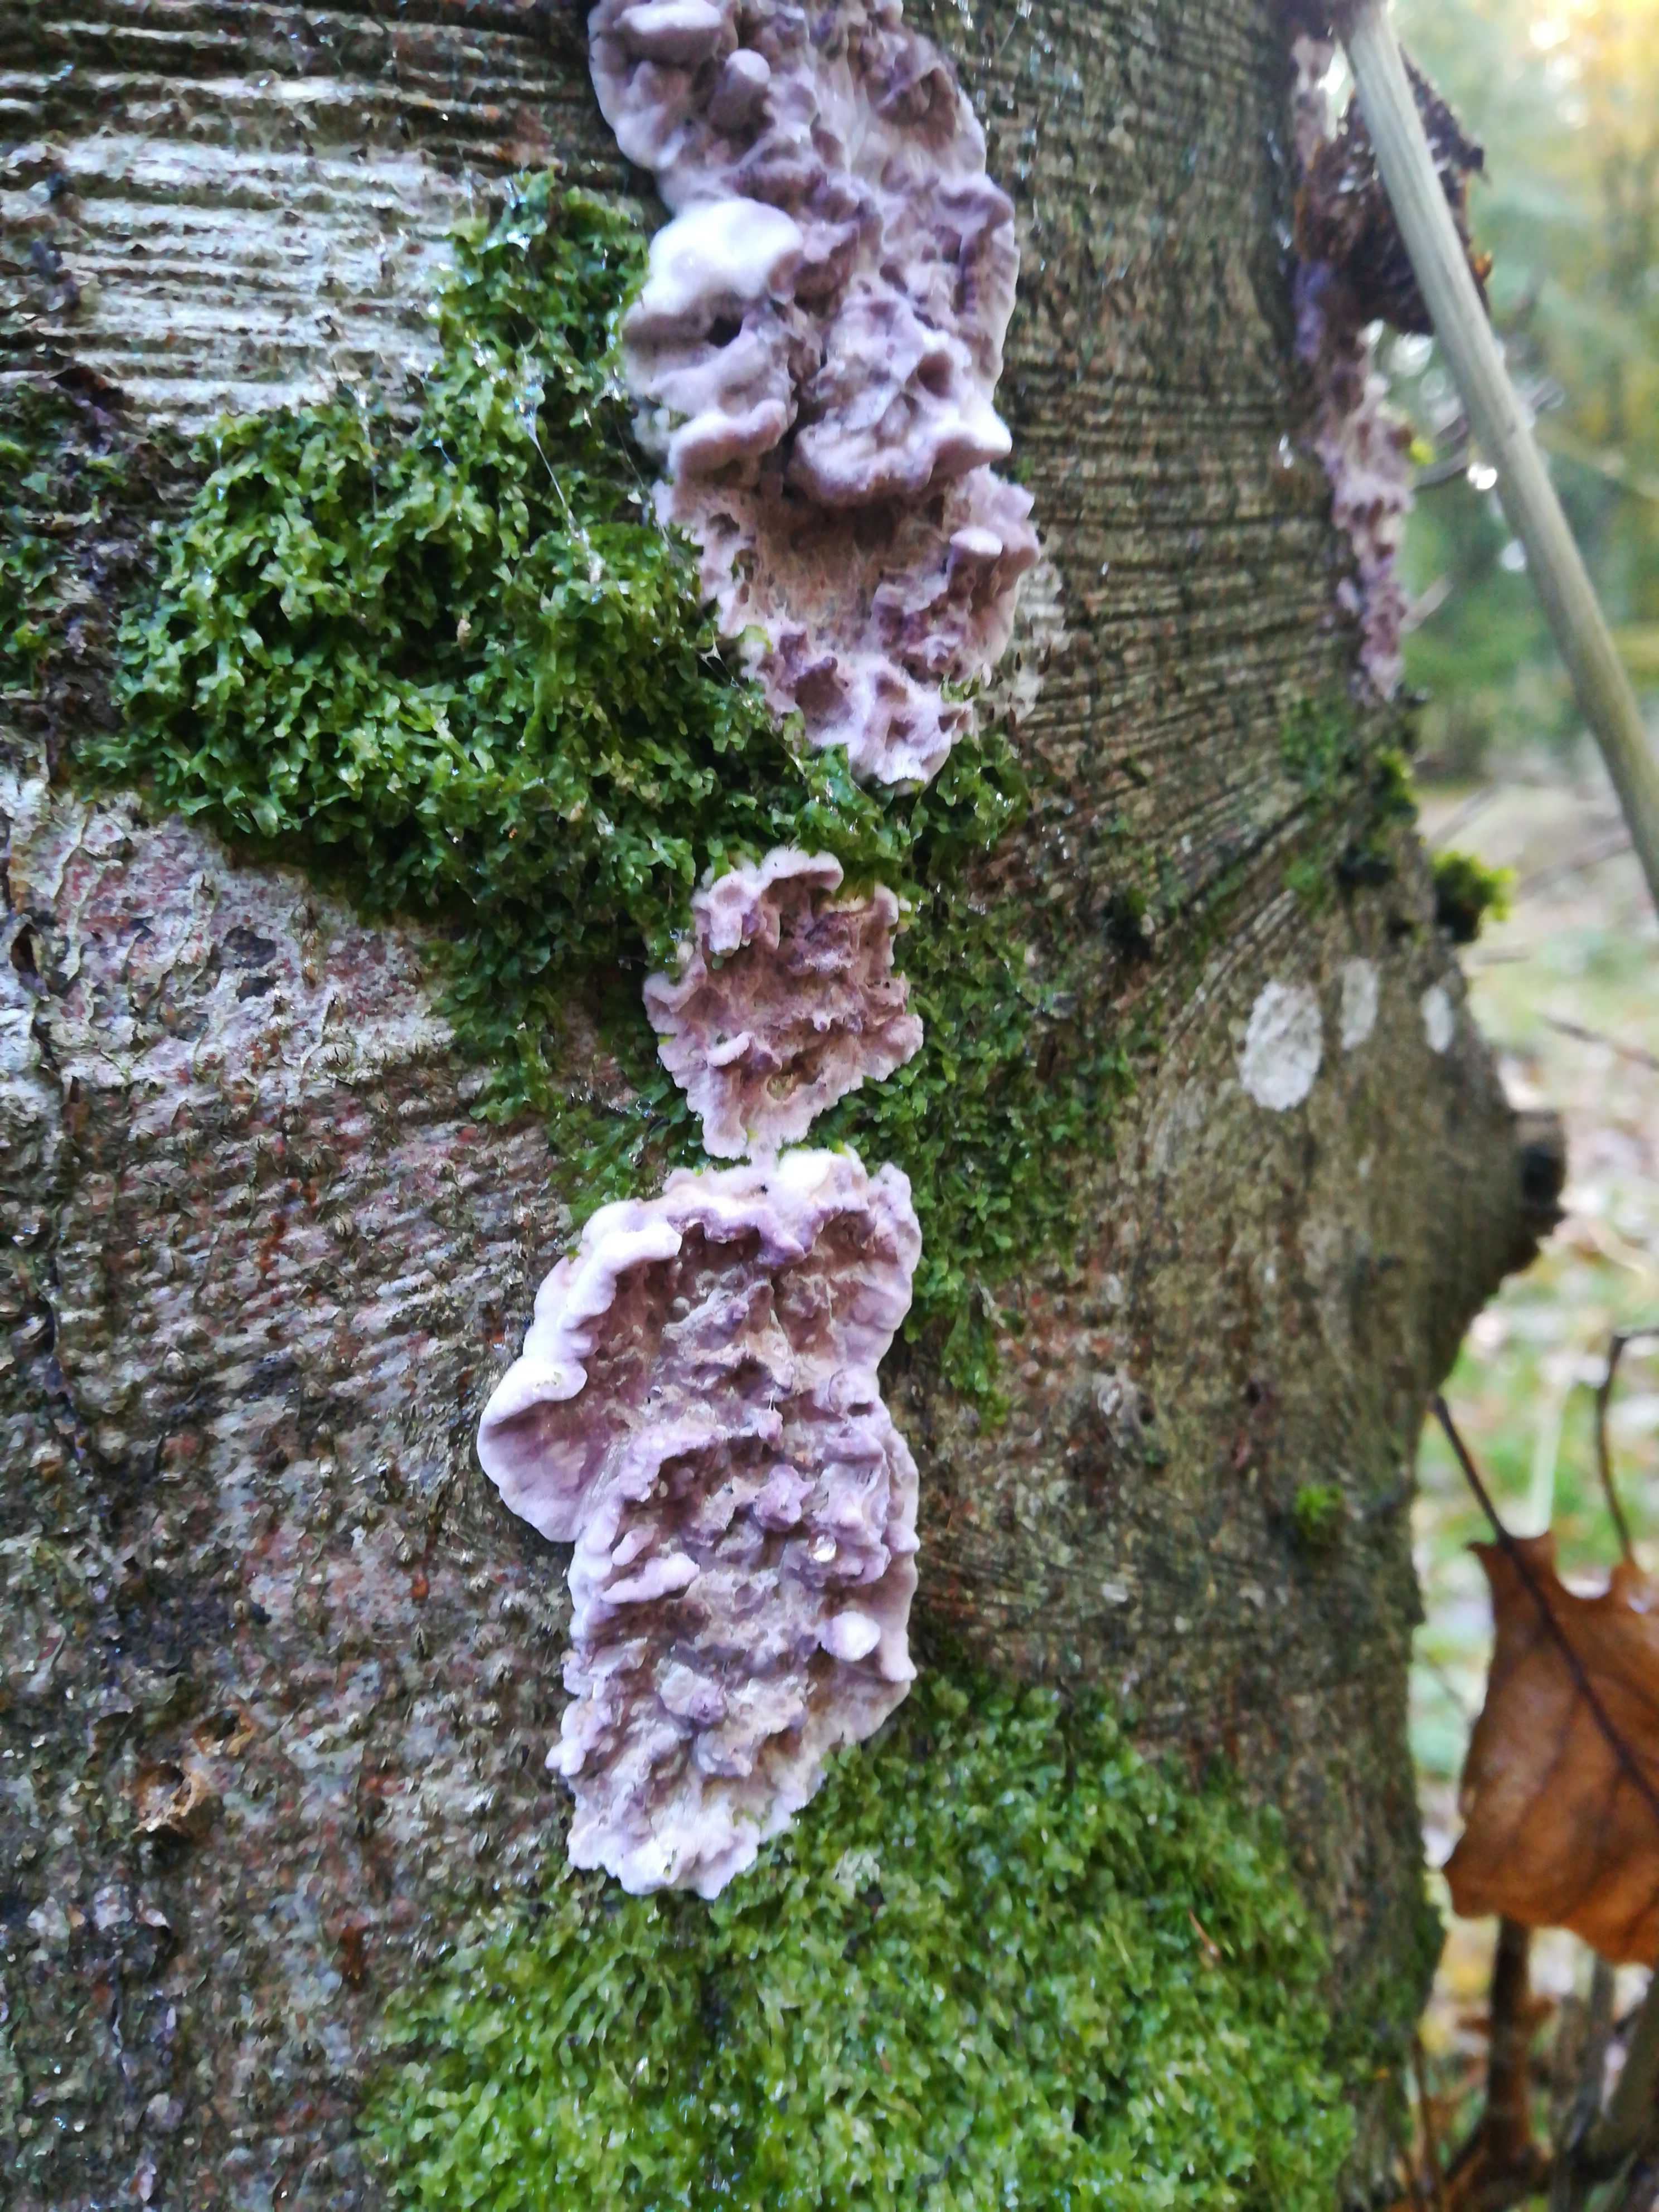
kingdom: Fungi
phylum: Basidiomycota
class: Agaricomycetes
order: Agaricales
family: Cyphellaceae
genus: Chondrostereum
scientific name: Chondrostereum purpureum
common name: purpurlædersvamp
